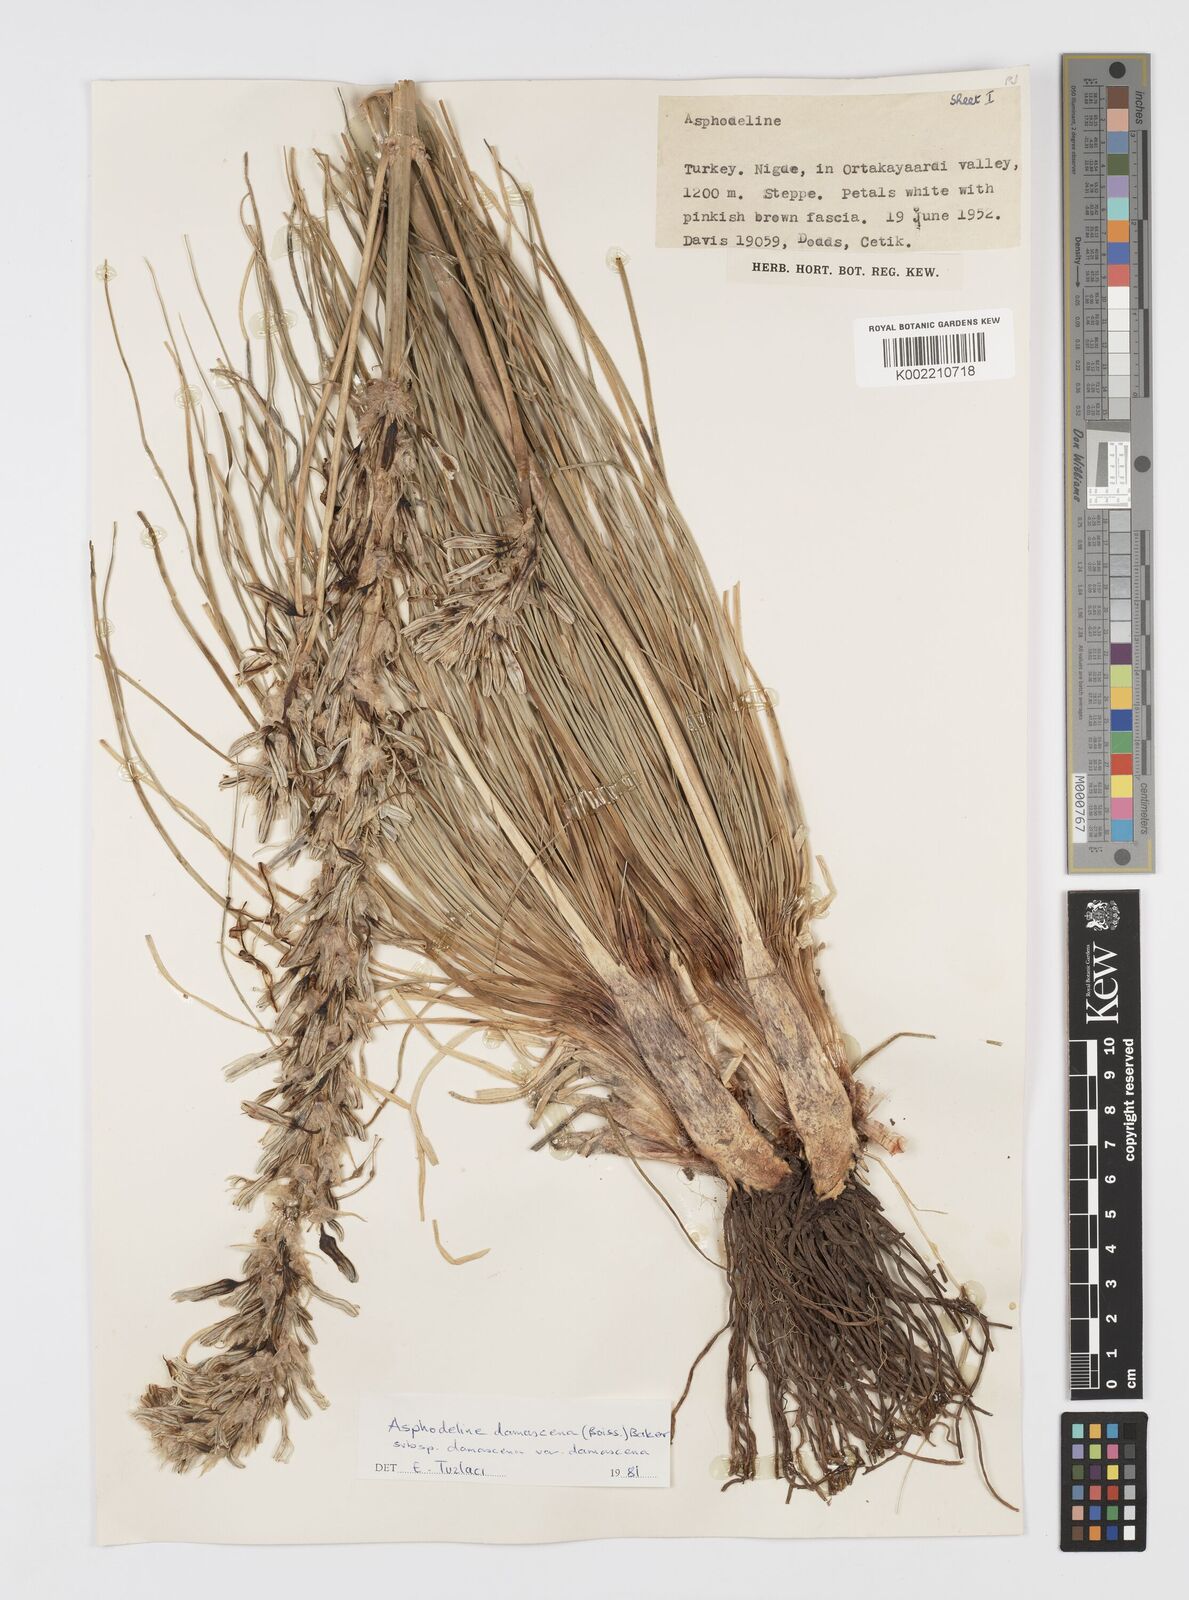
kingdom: Plantae
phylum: Tracheophyta
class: Liliopsida
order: Asparagales
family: Asphodelaceae
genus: Asphodeline
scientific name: Asphodeline damascena
